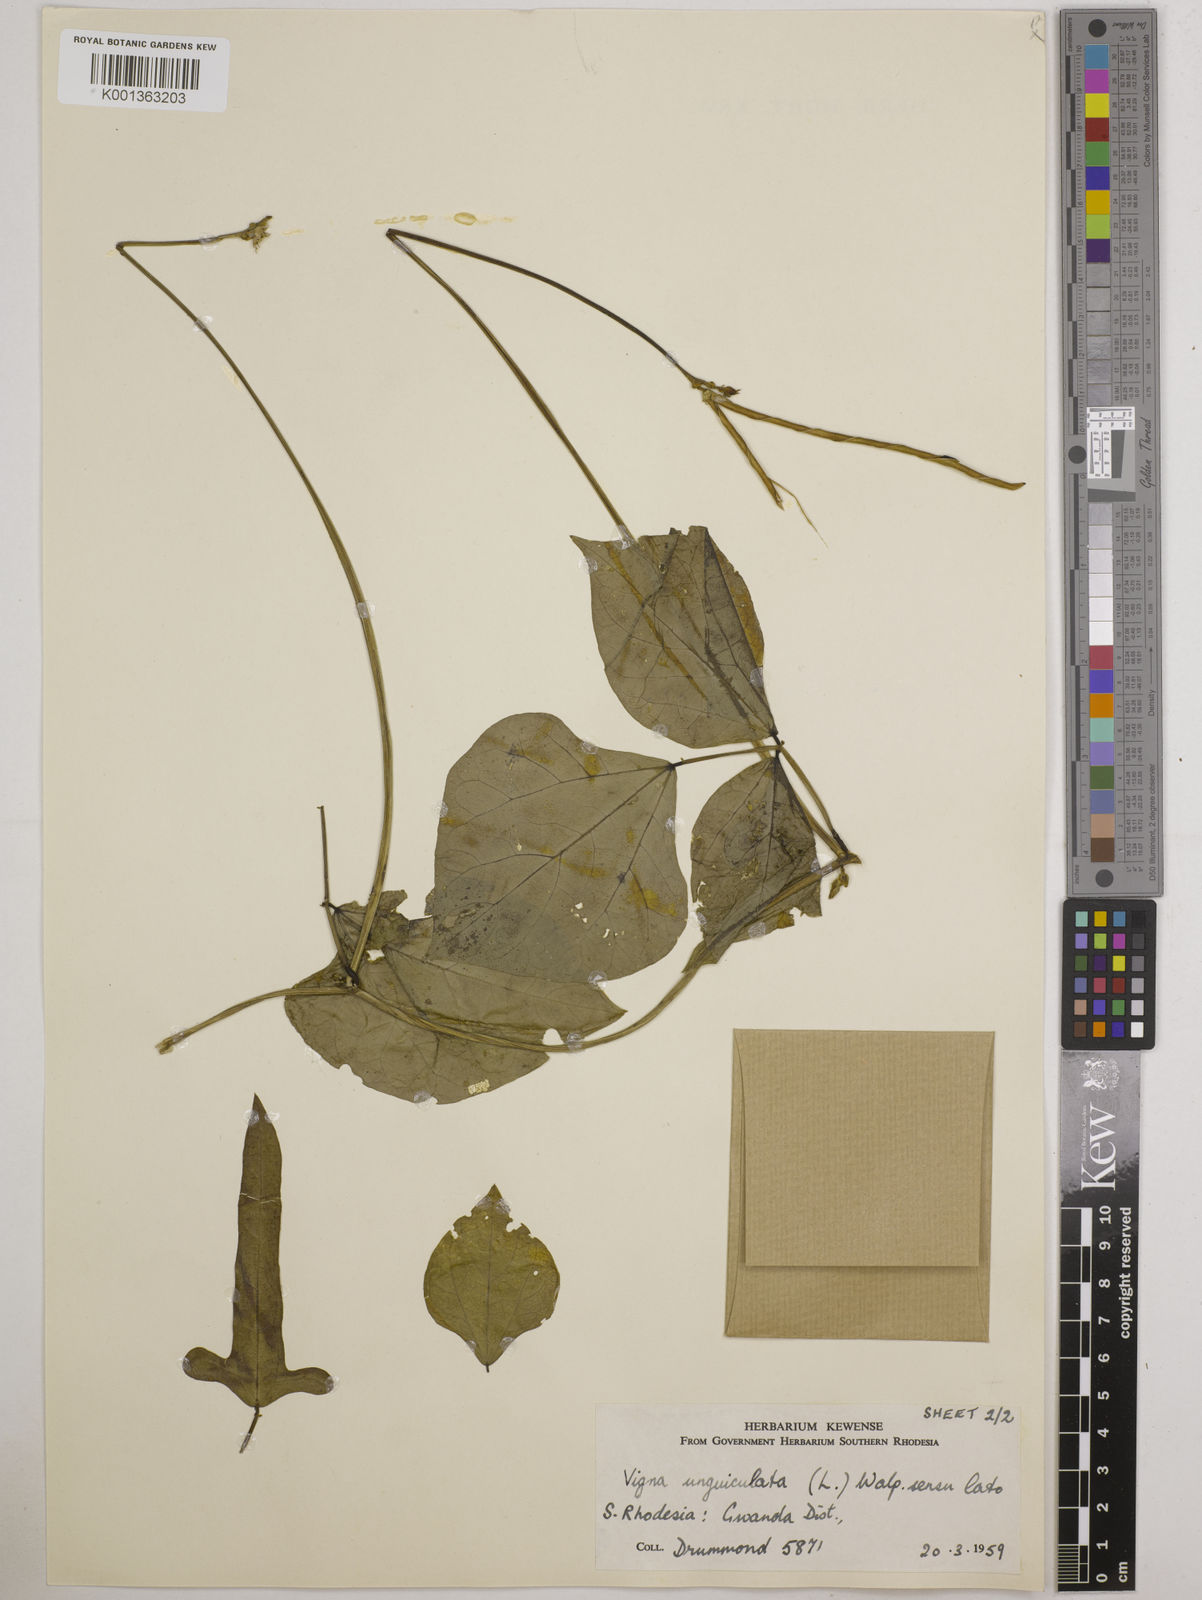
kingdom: Plantae
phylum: Tracheophyta
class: Magnoliopsida
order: Fabales
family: Fabaceae
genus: Vigna
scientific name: Vigna unguiculata
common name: Cowpea
